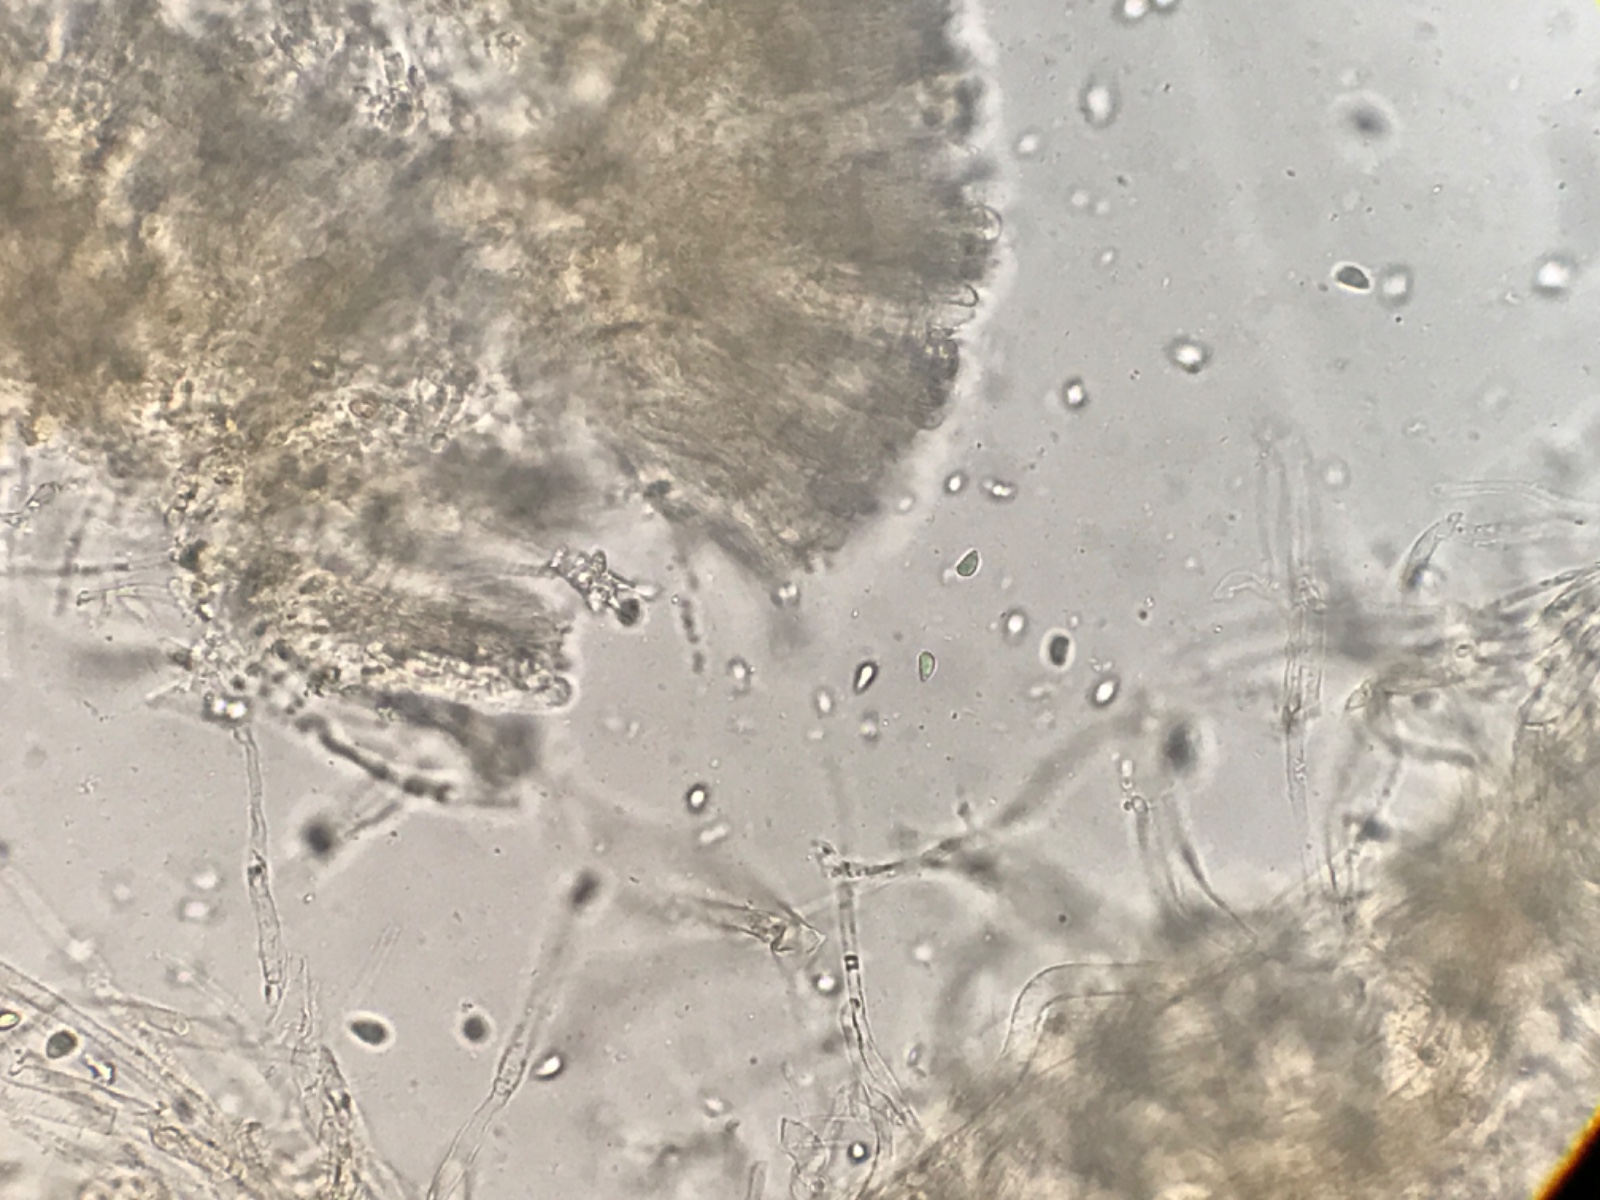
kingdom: Fungi
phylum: Basidiomycota
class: Agaricomycetes
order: Agaricales
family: Clavariaceae
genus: Clavulinopsis
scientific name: Clavulinopsis luteoalba
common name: abrikos-køllesvamp
